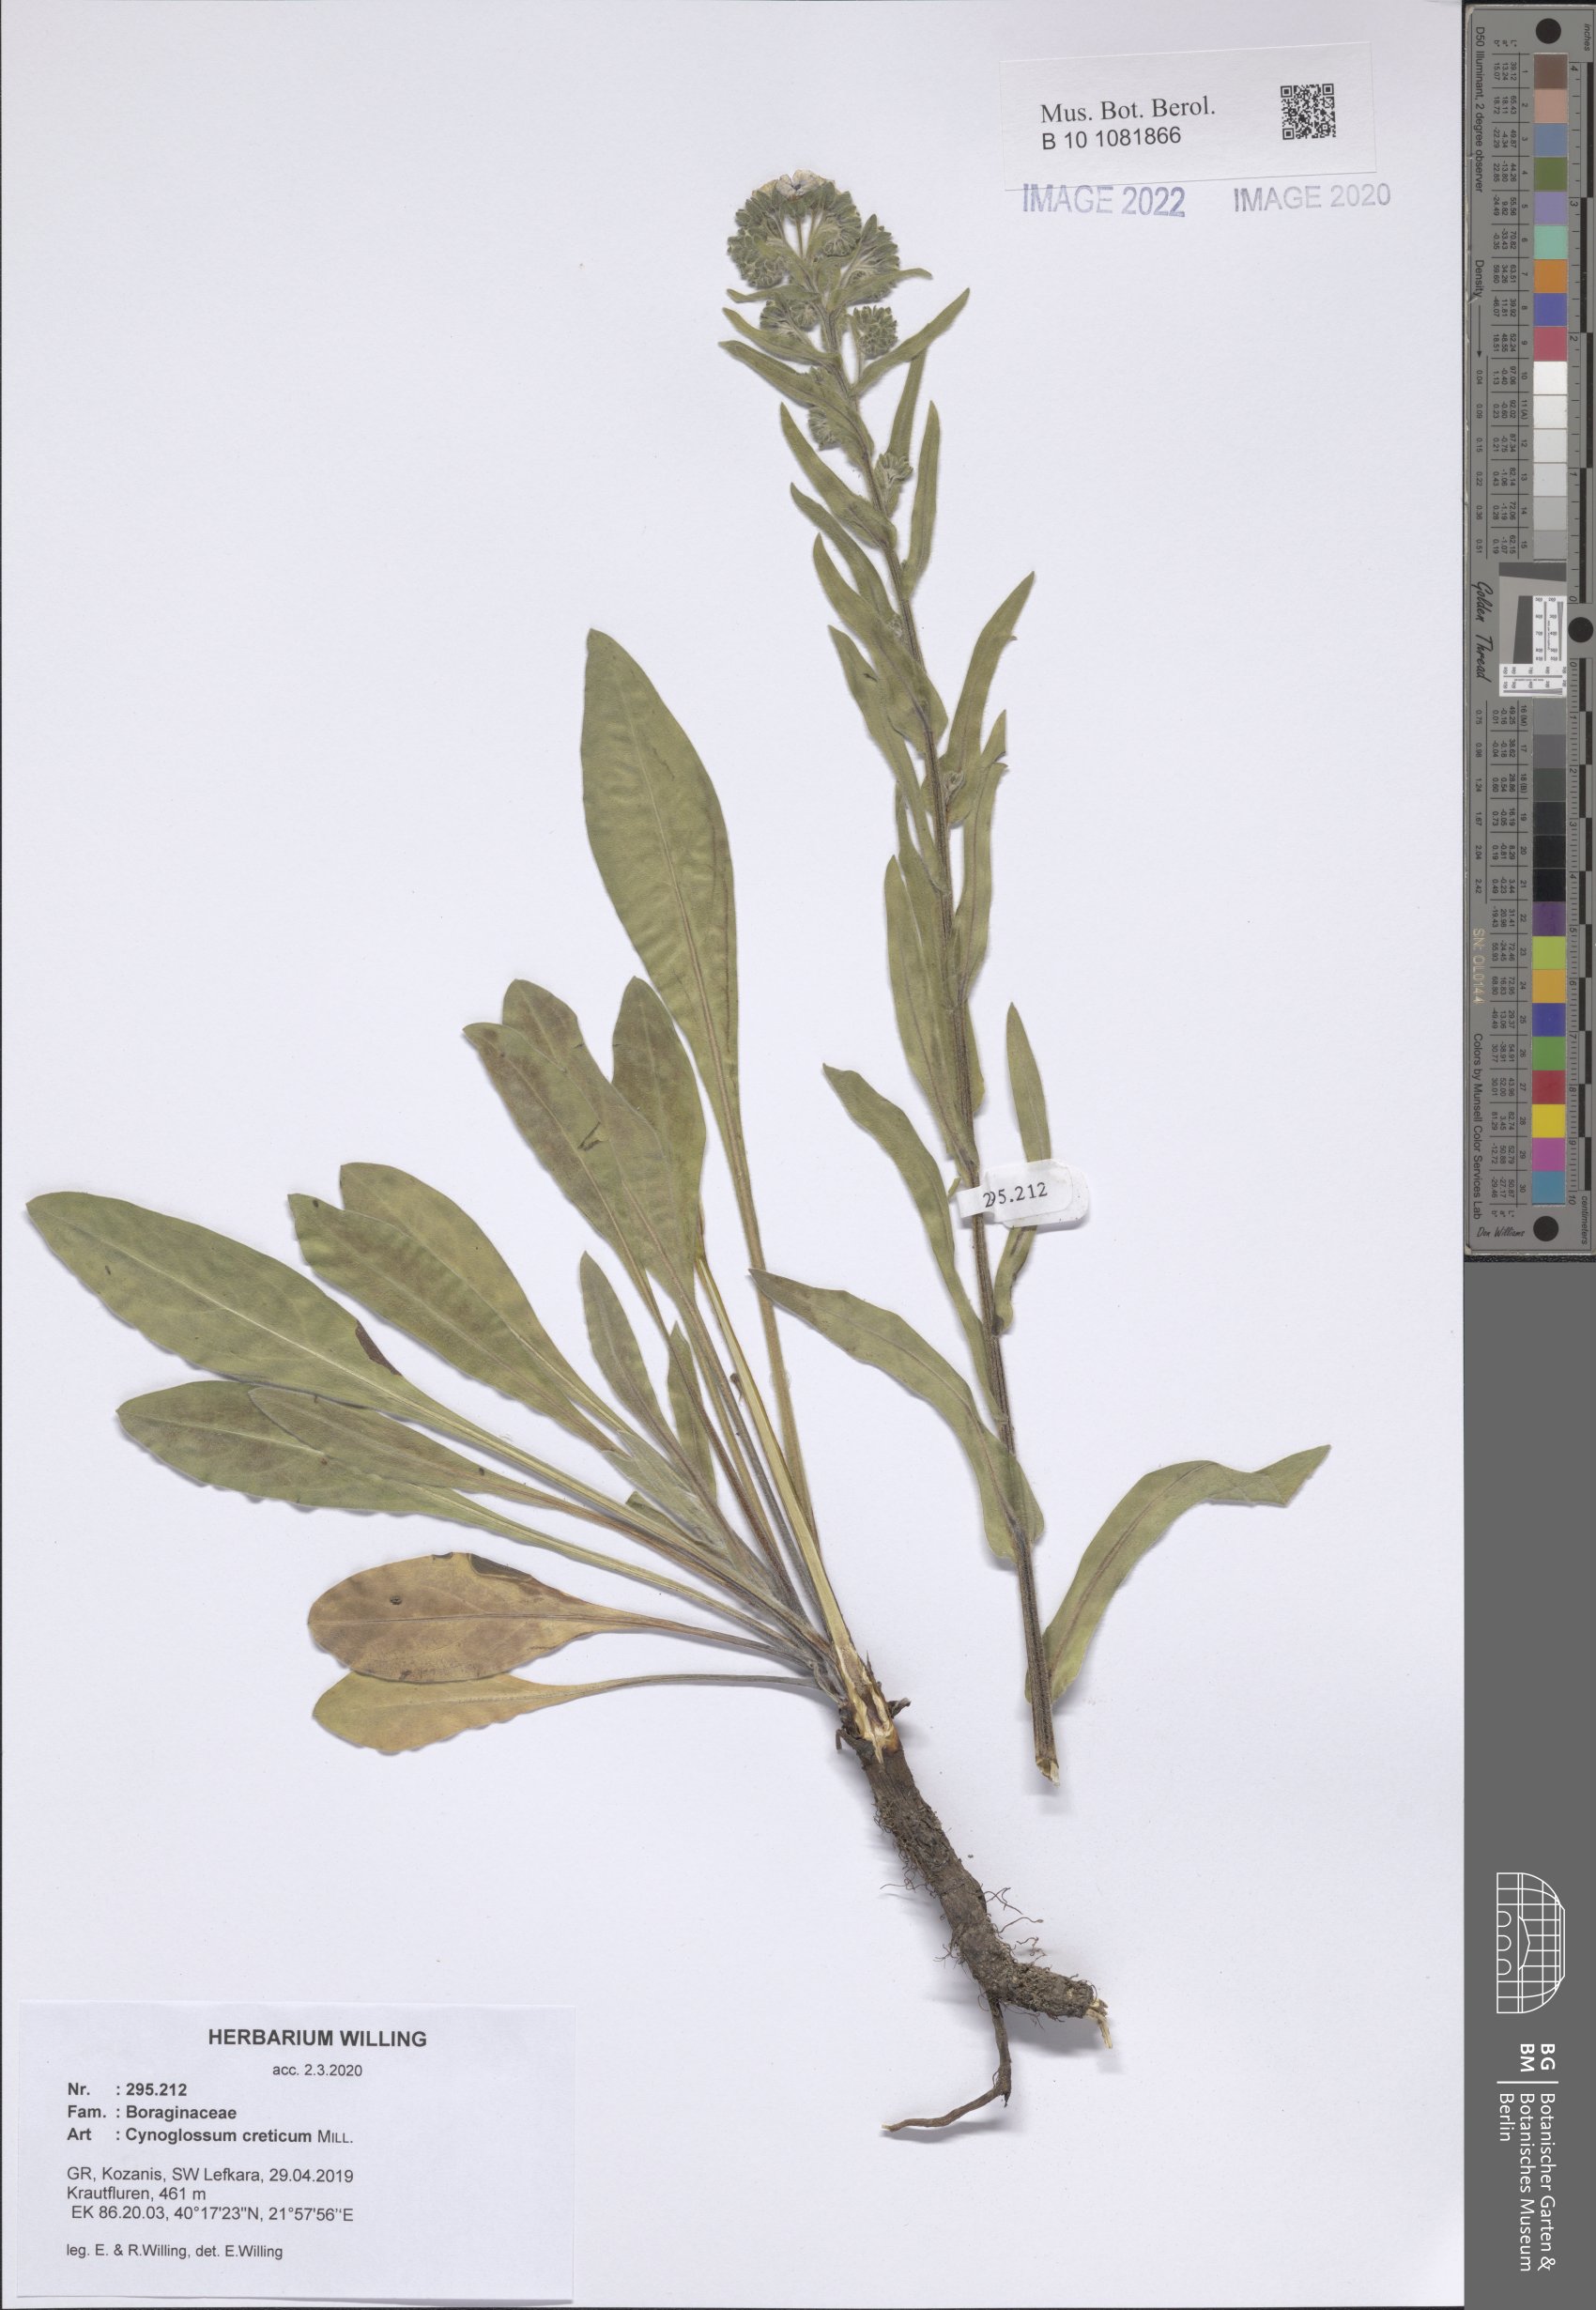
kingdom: Plantae
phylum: Tracheophyta
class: Magnoliopsida
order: Boraginales
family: Boraginaceae
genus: Cynoglossum
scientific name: Cynoglossum creticum
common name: Blue hound's tongue
